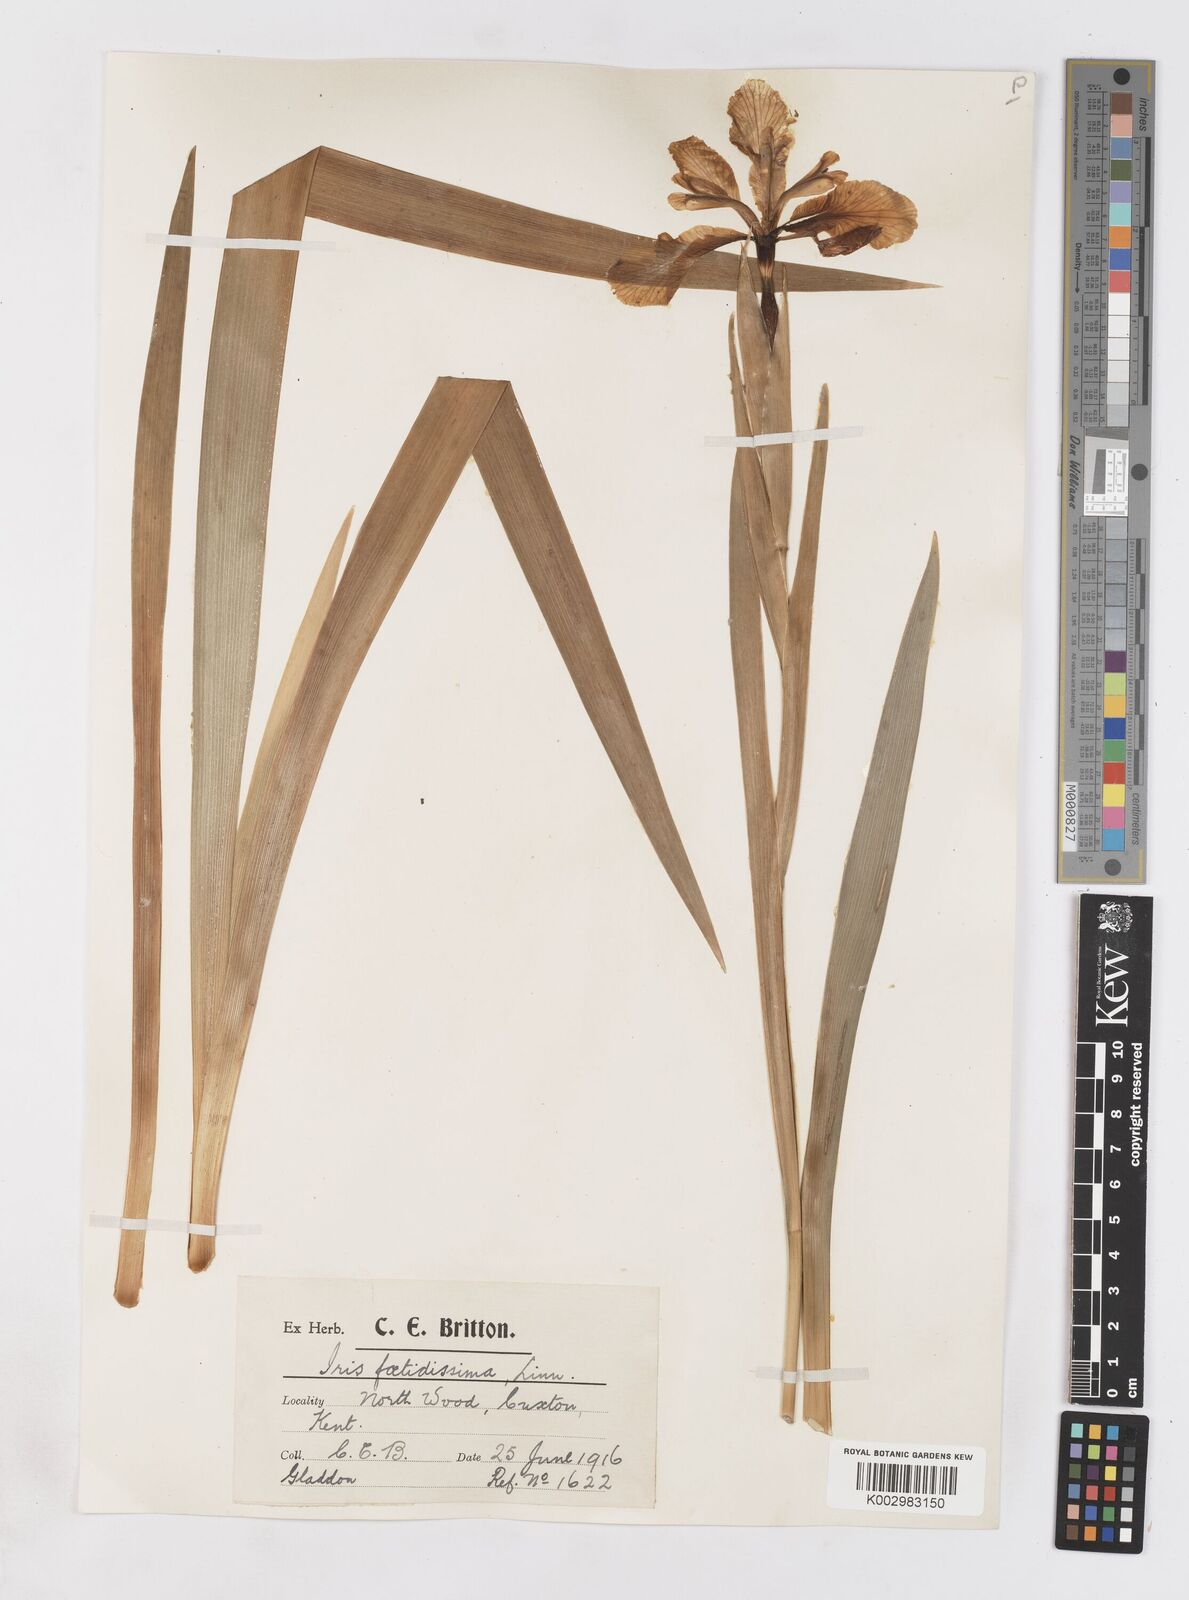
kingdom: Plantae
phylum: Tracheophyta
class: Liliopsida
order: Asparagales
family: Iridaceae
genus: Iris
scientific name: Iris foetidissima
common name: Stinking iris
